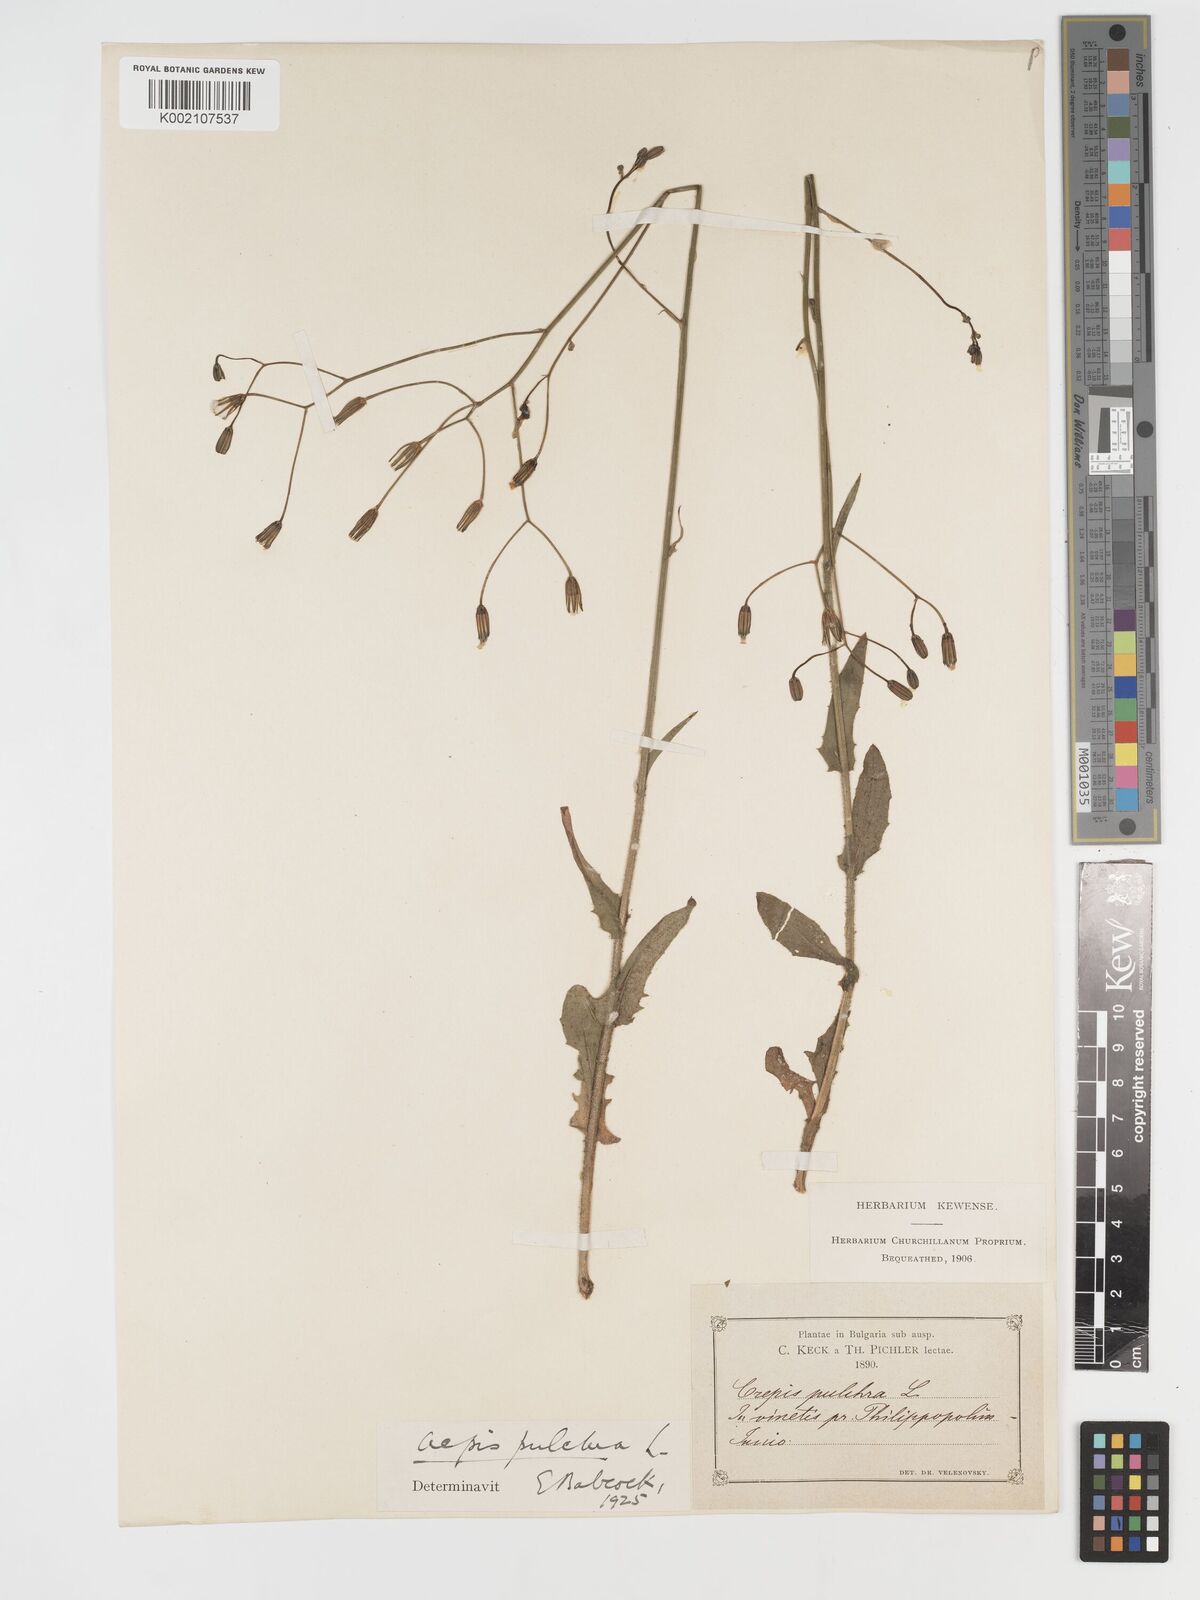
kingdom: Plantae
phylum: Tracheophyta
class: Magnoliopsida
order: Asterales
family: Asteraceae
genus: Crepis
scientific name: Crepis pulchra
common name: Hawk's-beard
